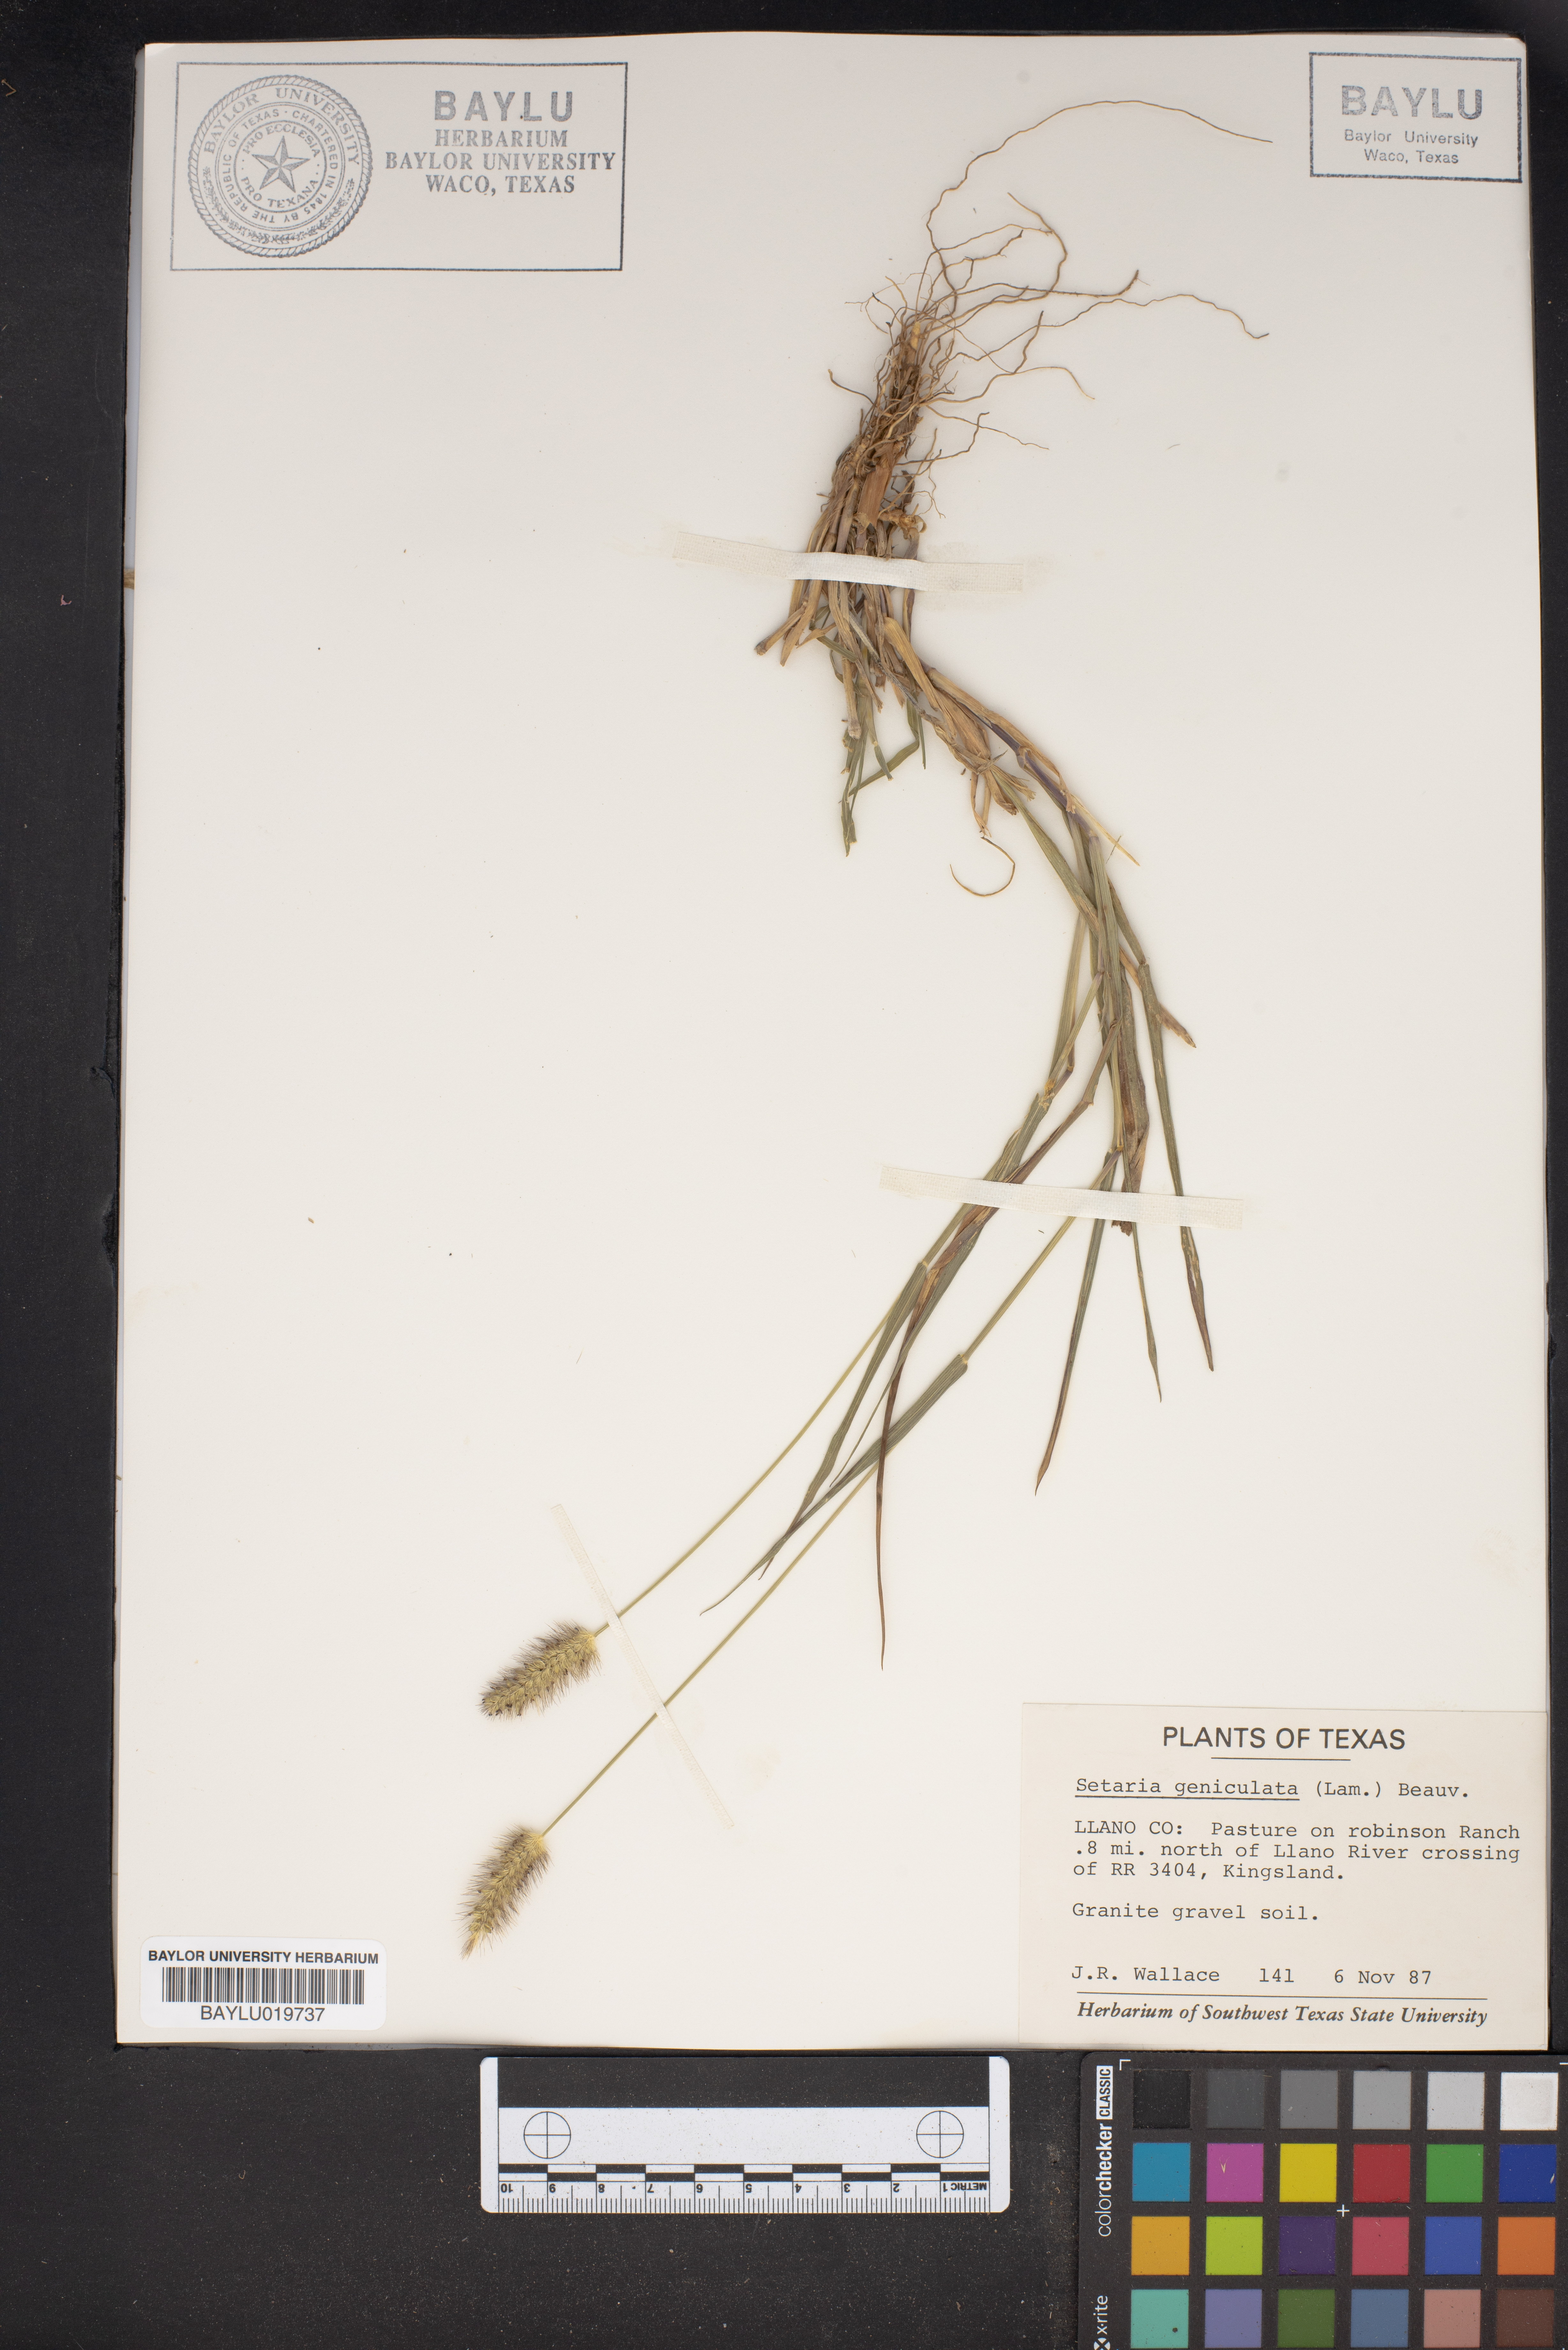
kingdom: Plantae
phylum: Tracheophyta
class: Liliopsida
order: Poales
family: Poaceae
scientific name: Poaceae
